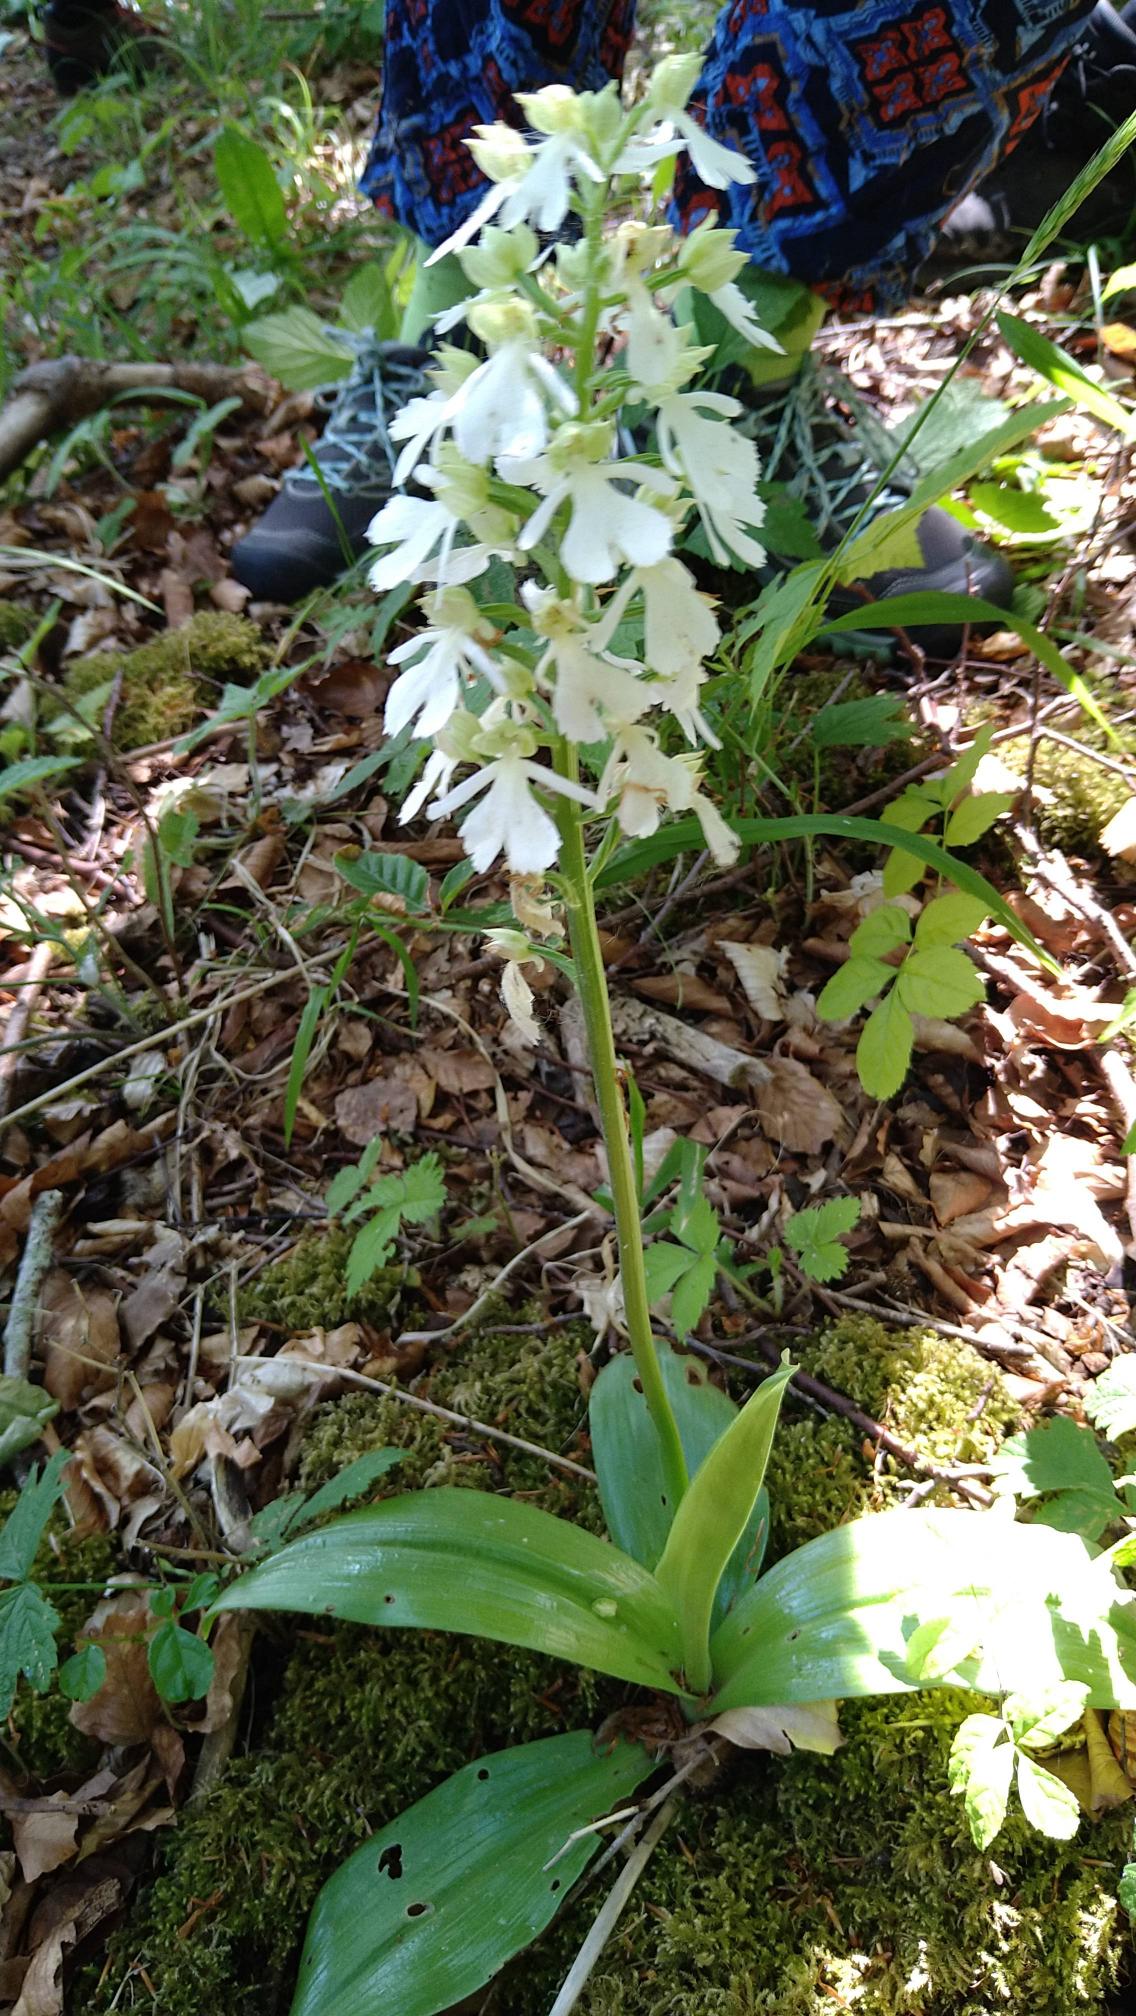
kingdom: Plantae
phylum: Tracheophyta
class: Liliopsida
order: Asparagales
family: Orchidaceae
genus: Orchis
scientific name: Orchis purpurea
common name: Stor gøgeurt
